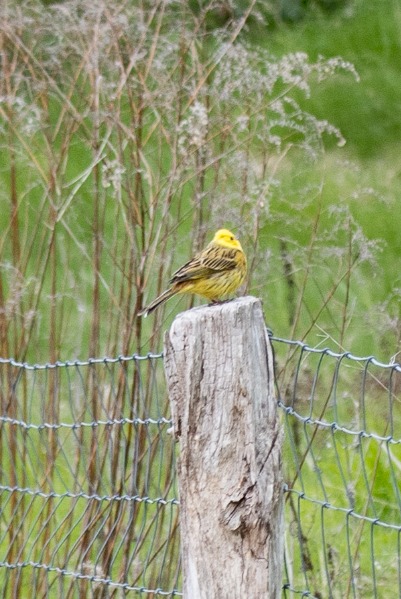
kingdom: Animalia
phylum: Chordata
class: Aves
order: Passeriformes
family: Emberizidae
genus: Emberiza
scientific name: Emberiza citrinella
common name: Gulspurv
